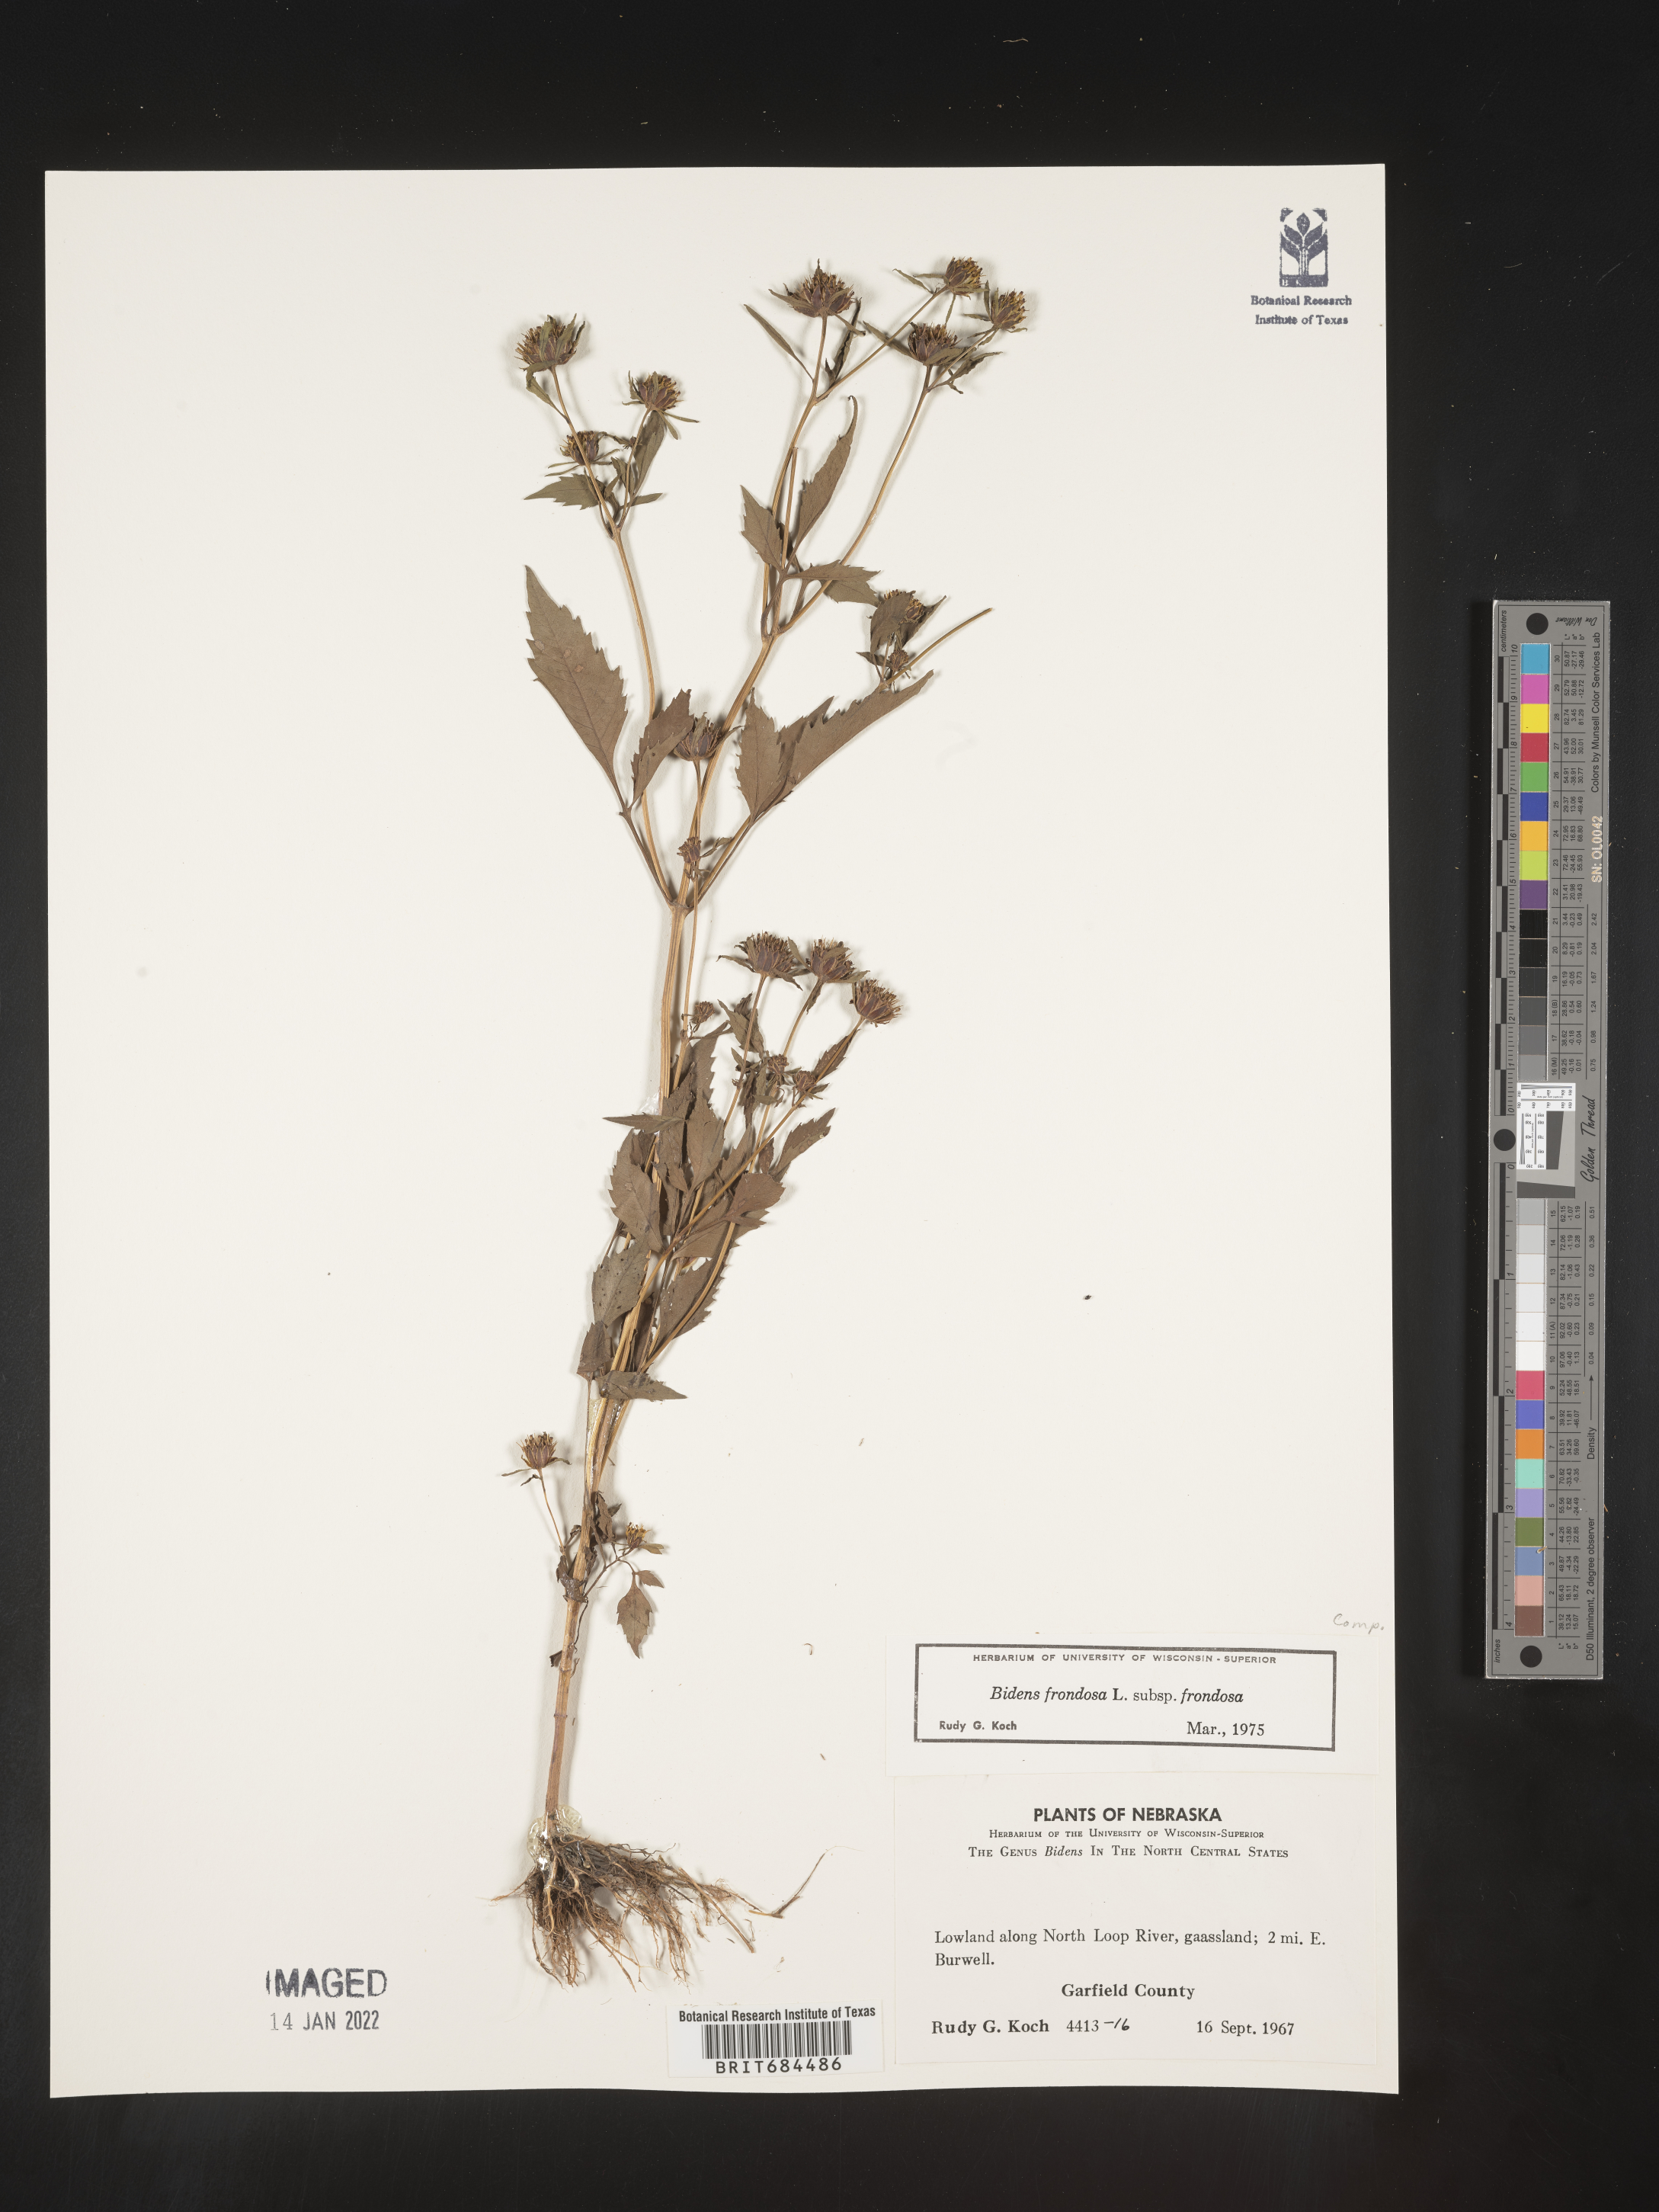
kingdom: Plantae
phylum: Tracheophyta
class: Magnoliopsida
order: Asterales
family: Asteraceae
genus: Bidens
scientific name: Bidens frondosa
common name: Beggarticks
